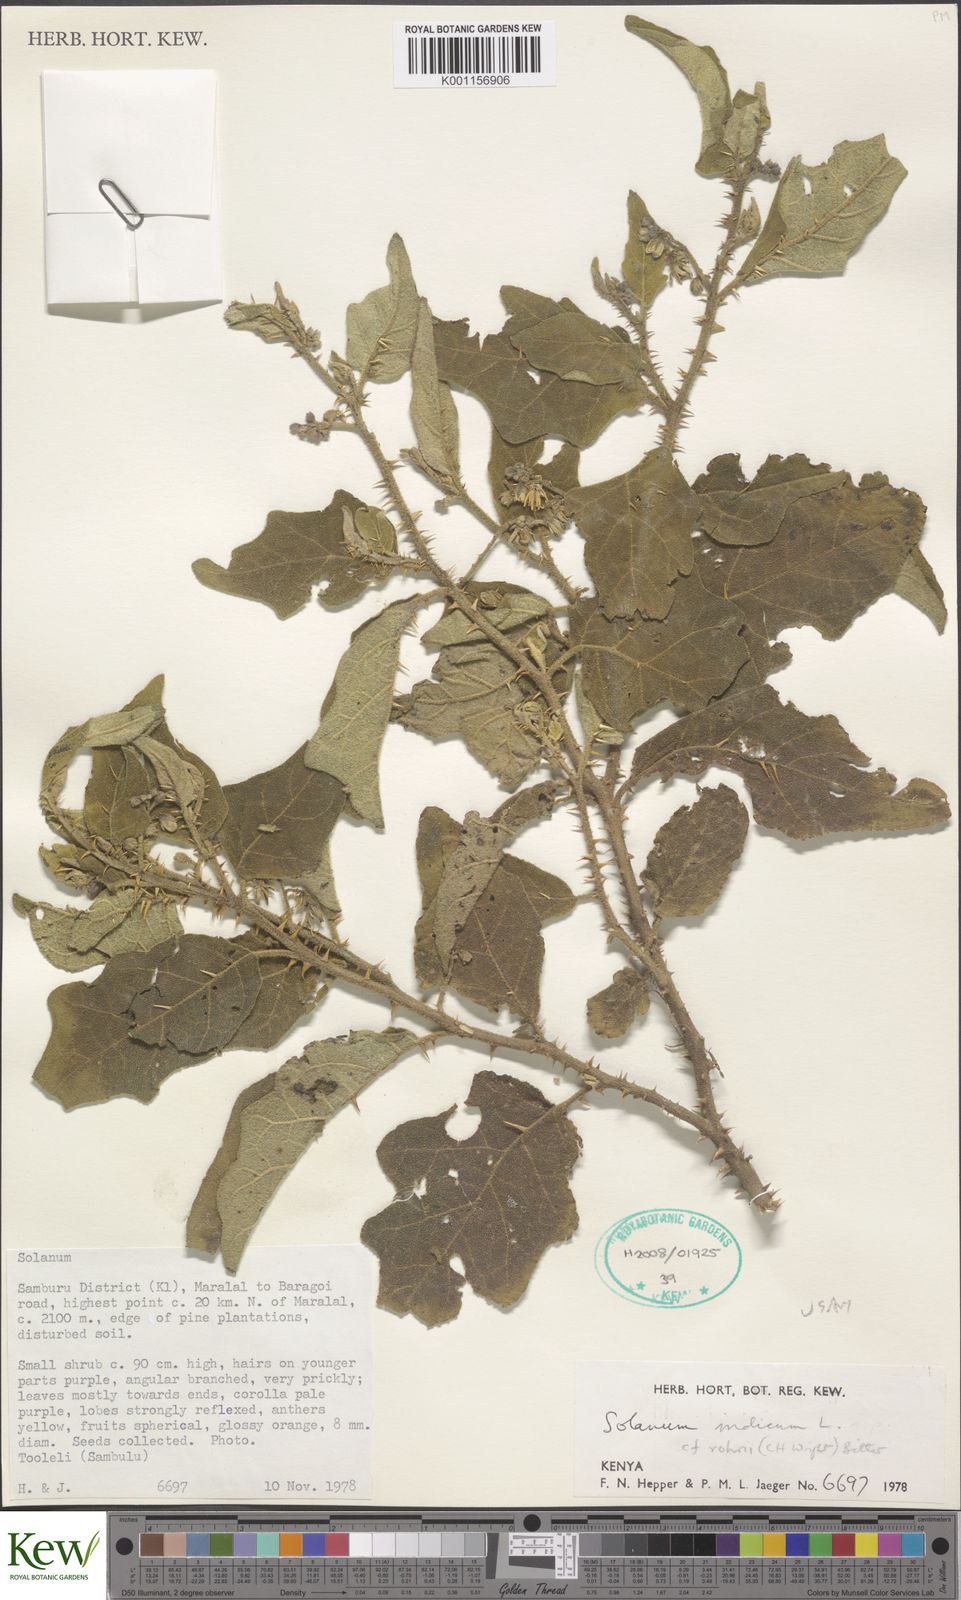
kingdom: Plantae
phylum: Tracheophyta
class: Magnoliopsida
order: Solanales
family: Solanaceae
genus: Solanum
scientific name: Solanum anguivi
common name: Forest bitterberry
